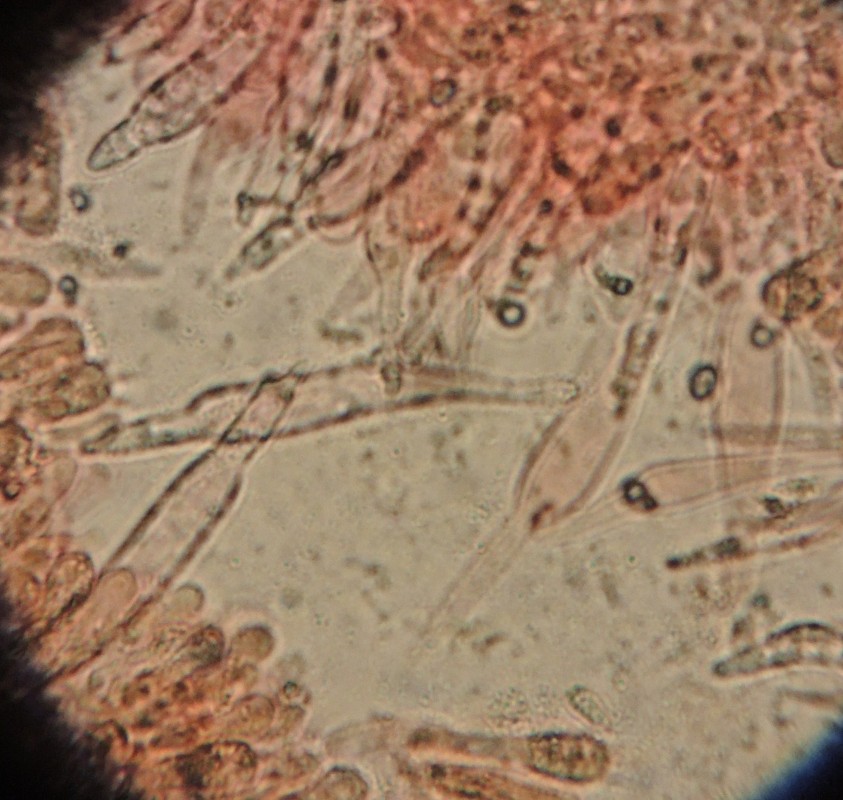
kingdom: Fungi
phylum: Basidiomycota
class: Agaricomycetes
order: Agaricales
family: Mycenaceae
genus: Mycena
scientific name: Mycena galopus
